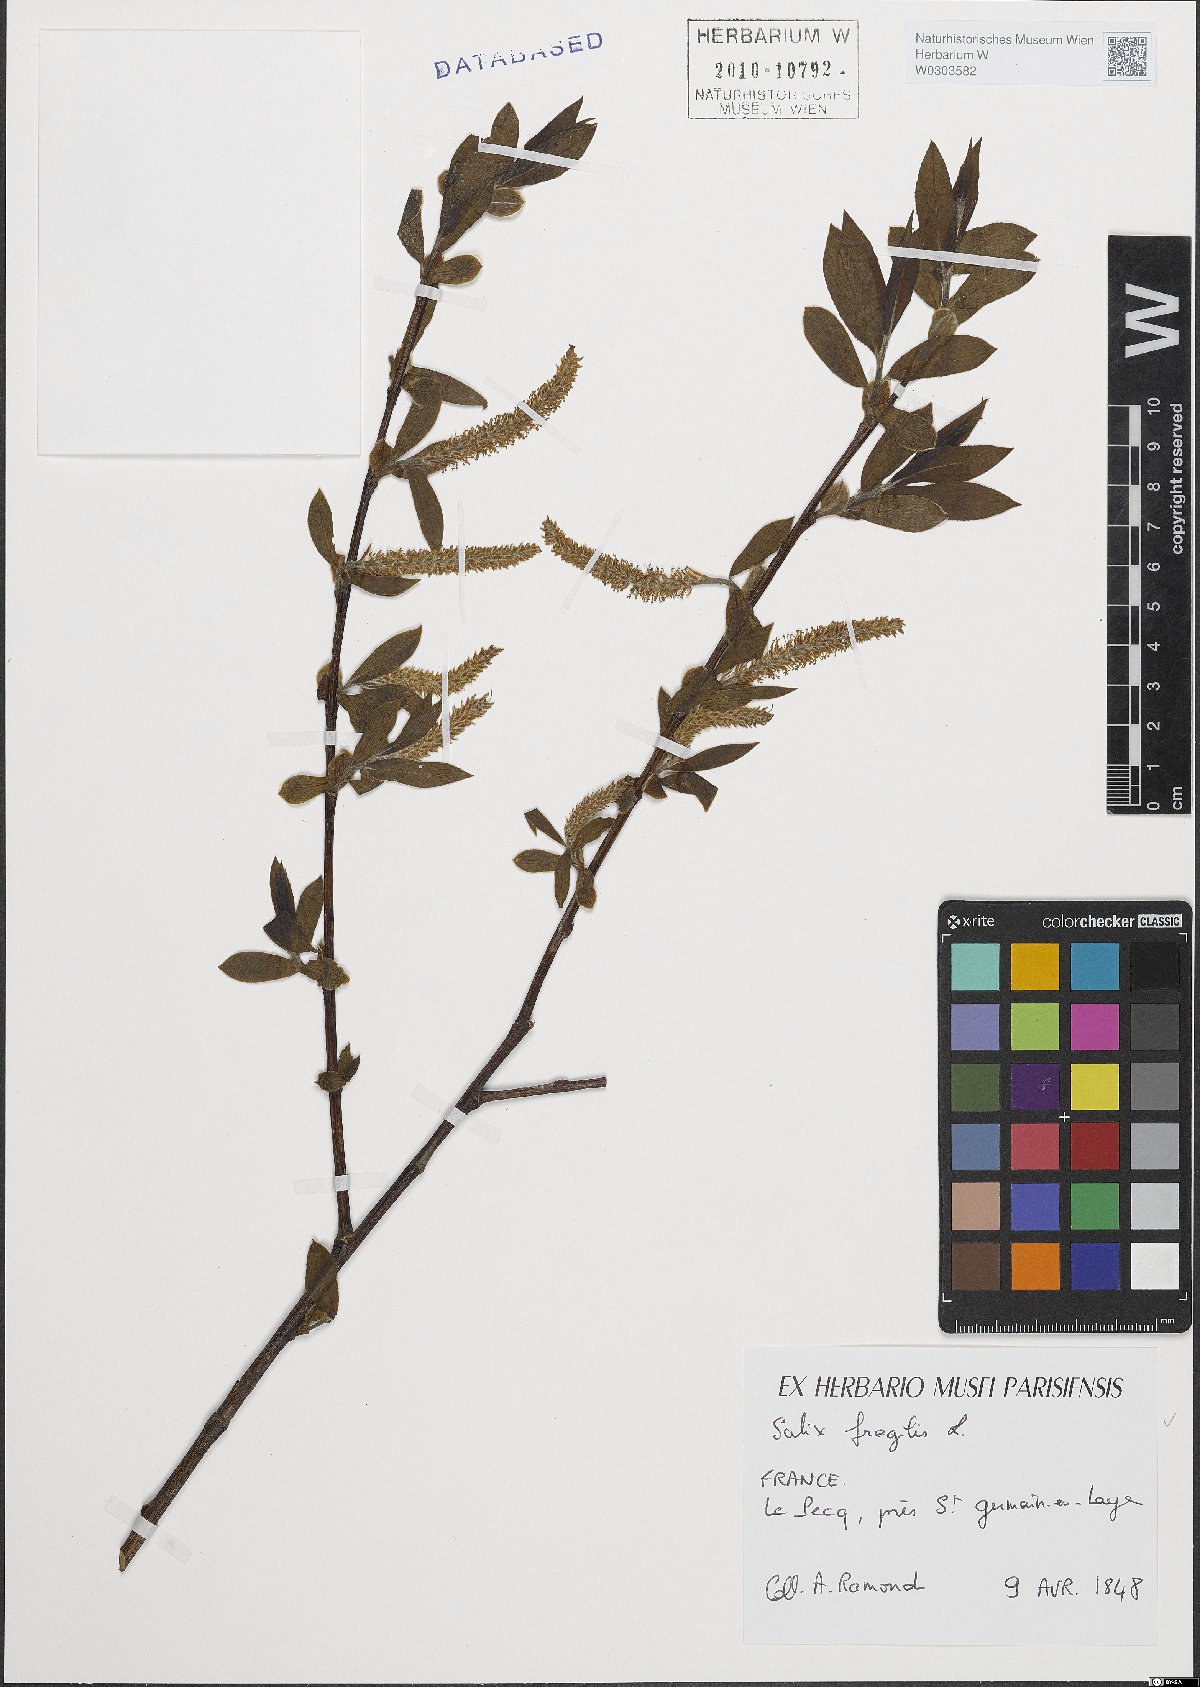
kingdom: Plantae
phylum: Tracheophyta
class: Magnoliopsida
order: Malpighiales
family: Salicaceae
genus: Salix
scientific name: Salix fragilis
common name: Crack willow
